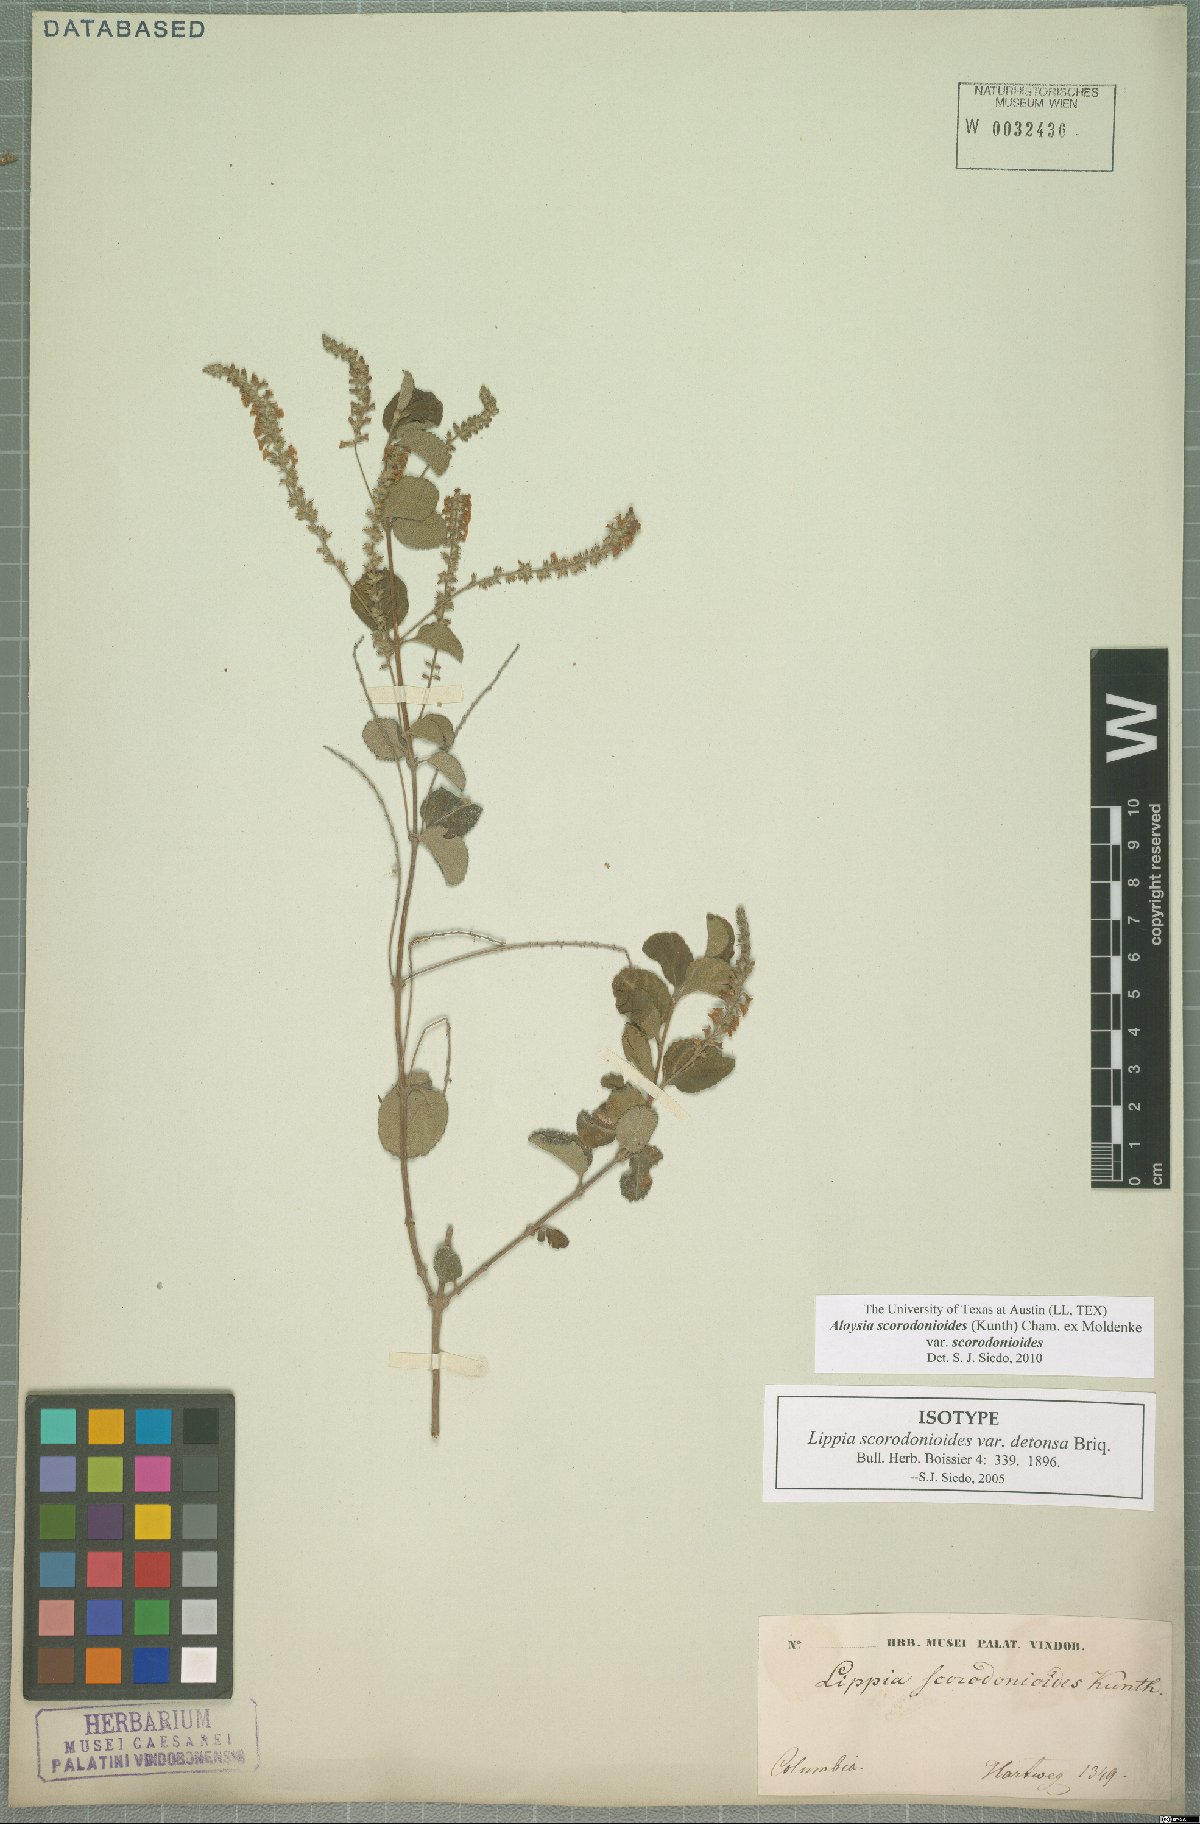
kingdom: Plantae
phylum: Tracheophyta
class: Magnoliopsida
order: Lamiales
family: Verbenaceae
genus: Aloysia
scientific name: Aloysia scorodonioides
